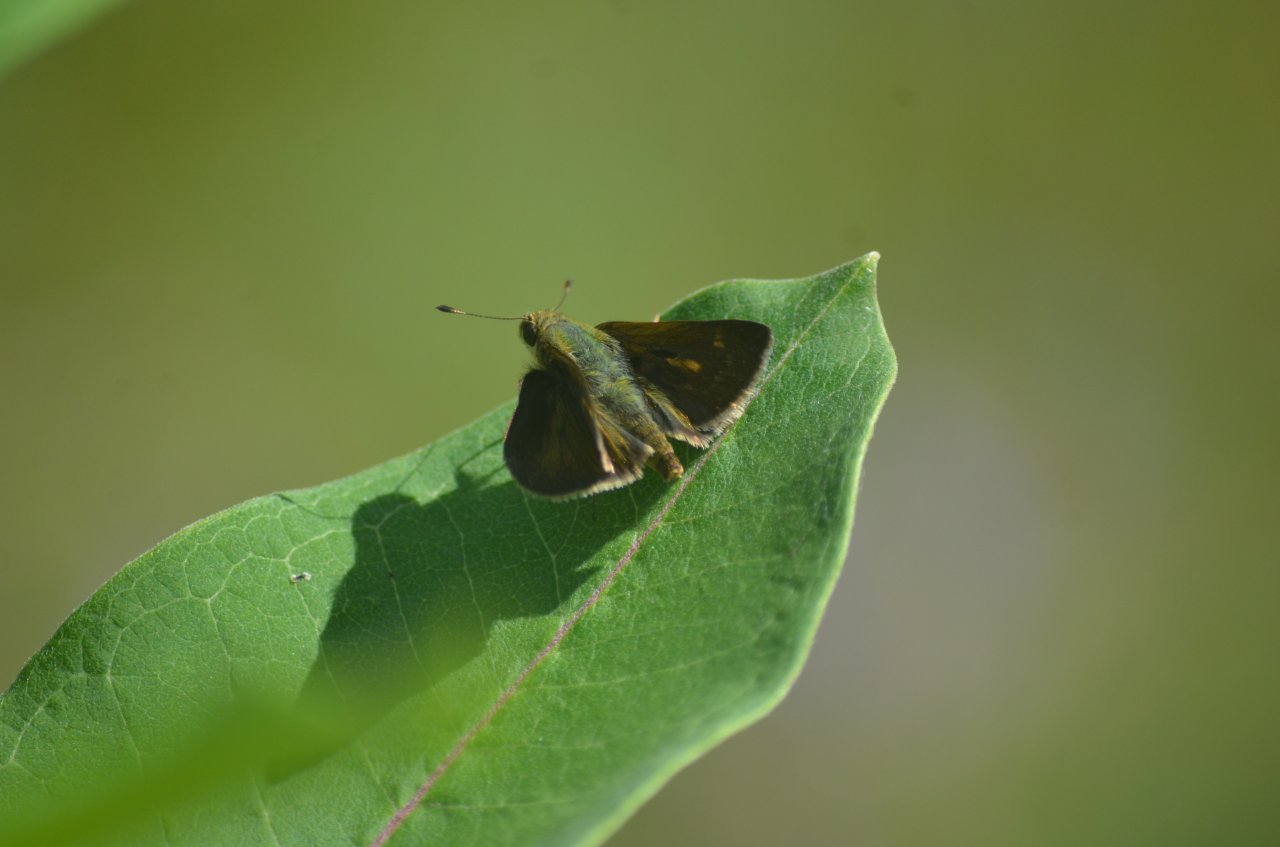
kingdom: Animalia
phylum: Arthropoda
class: Insecta
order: Lepidoptera
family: Hesperiidae
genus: Polites
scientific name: Polites egeremet
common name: Northern Broken-Dash
